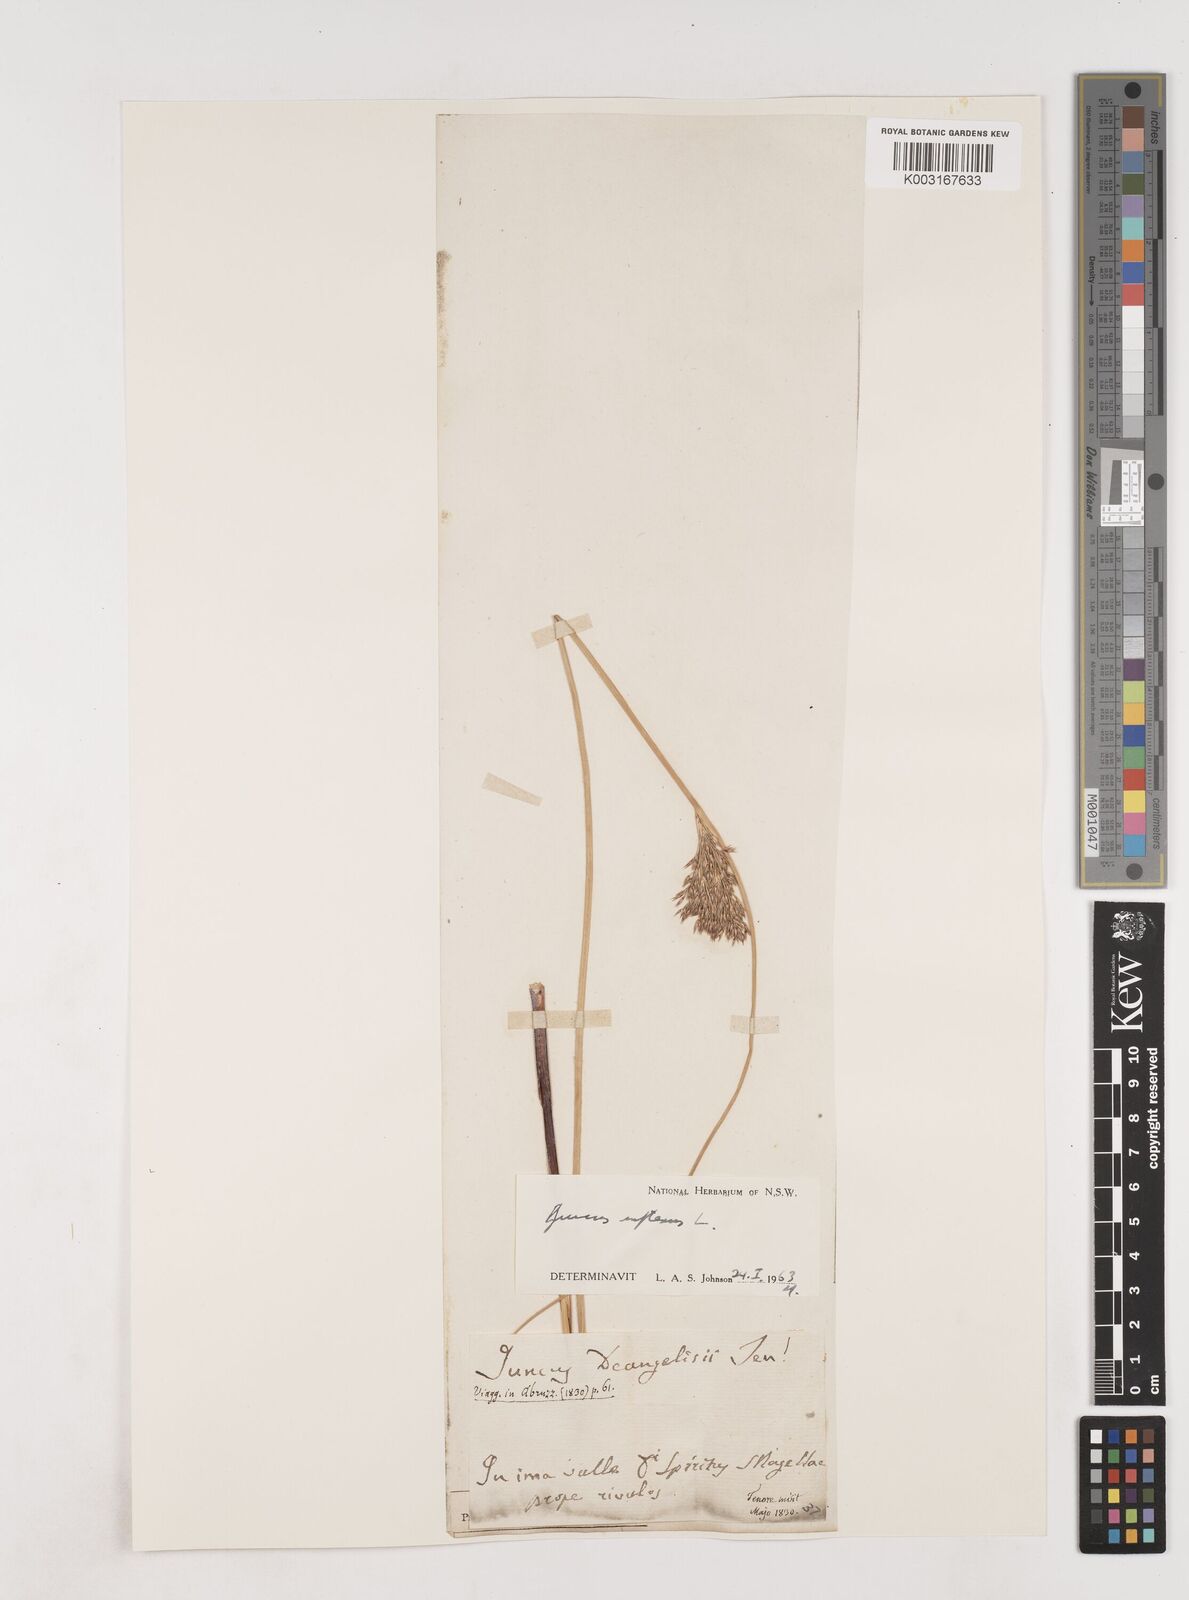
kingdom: Plantae
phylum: Tracheophyta
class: Liliopsida
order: Poales
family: Juncaceae
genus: Juncus
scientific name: Juncus inflexus
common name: Hard rush
